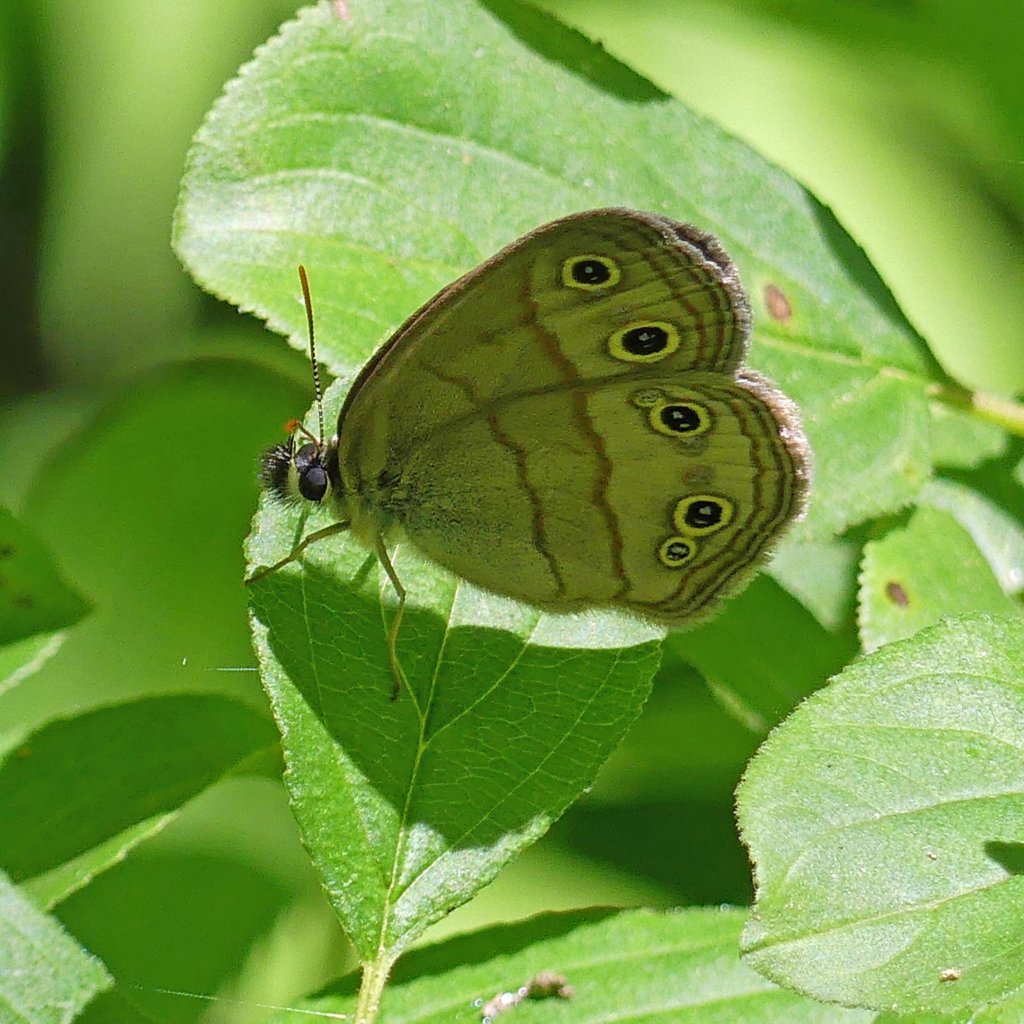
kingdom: Animalia
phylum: Arthropoda
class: Insecta
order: Lepidoptera
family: Nymphalidae
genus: Euptychia
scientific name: Euptychia cymela
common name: Little Wood Satyr
